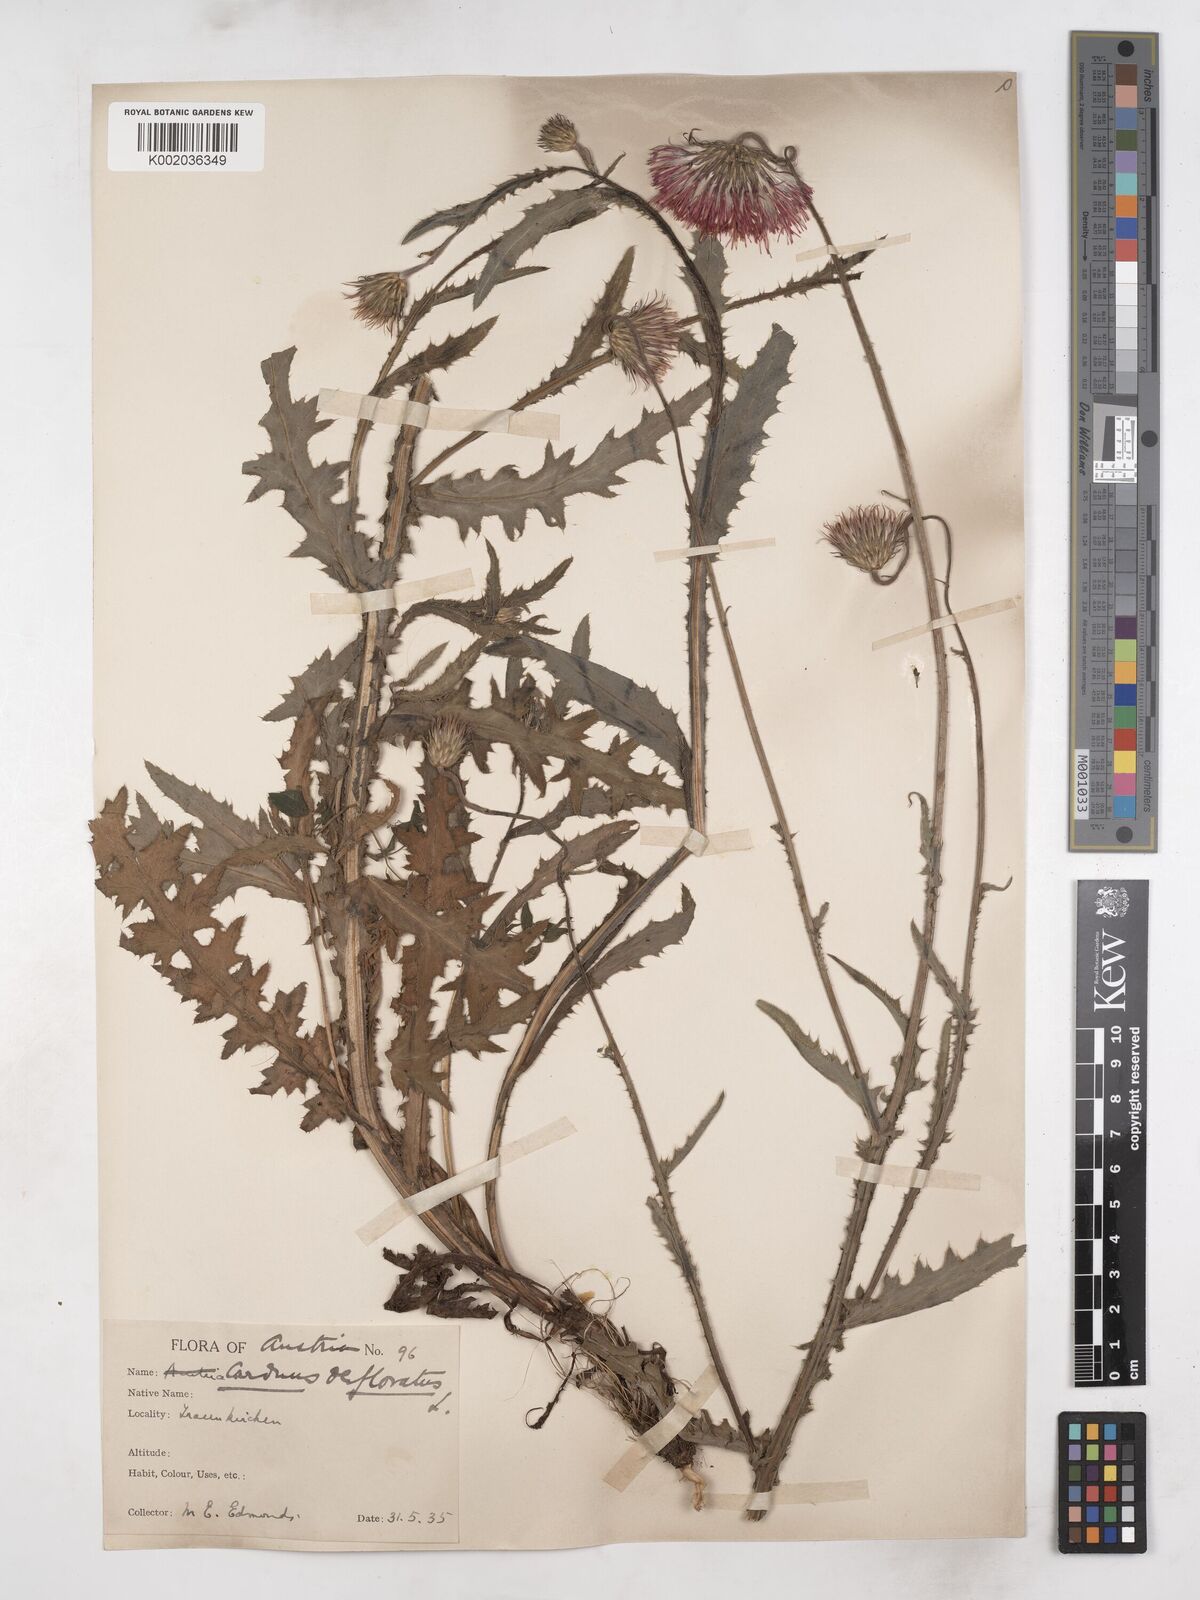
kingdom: Plantae
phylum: Tracheophyta
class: Magnoliopsida
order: Asterales
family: Asteraceae
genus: Carduus
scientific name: Carduus defloratus
